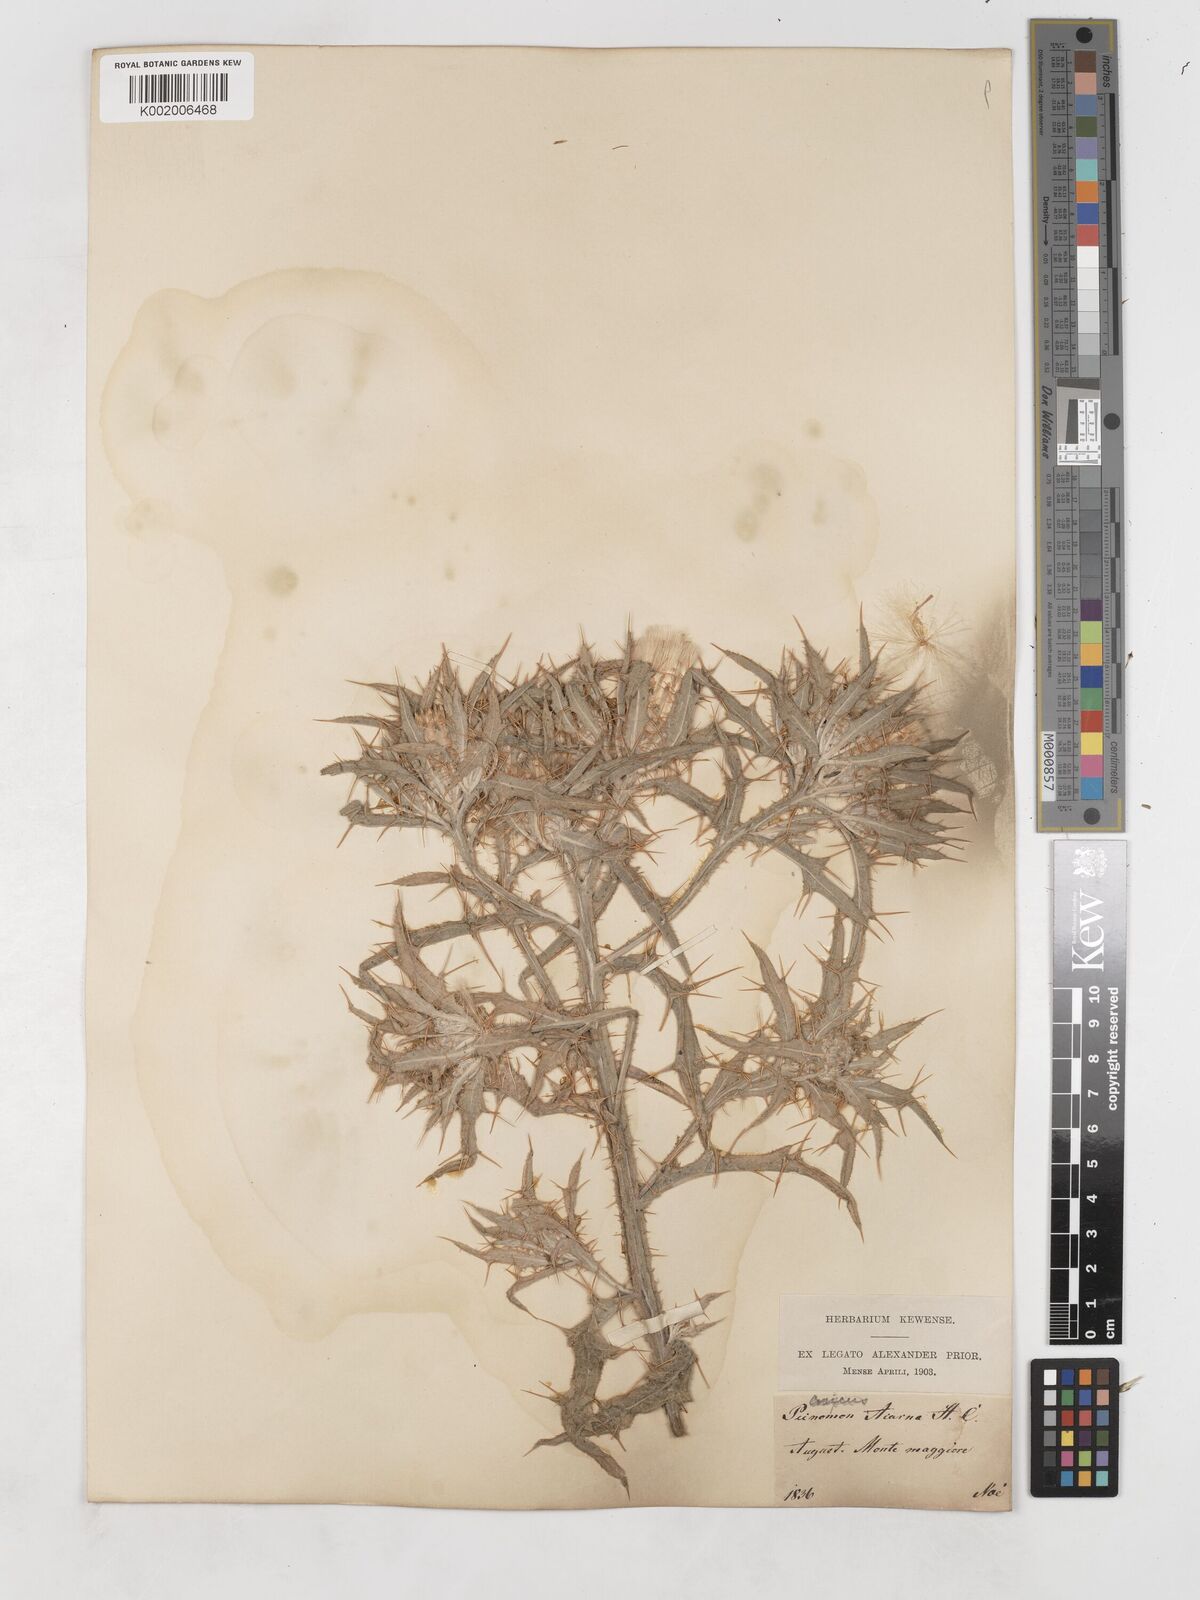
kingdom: Plantae
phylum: Tracheophyta
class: Magnoliopsida
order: Asterales
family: Asteraceae
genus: Picnomon
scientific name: Picnomon acarna
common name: Soldier thistle
